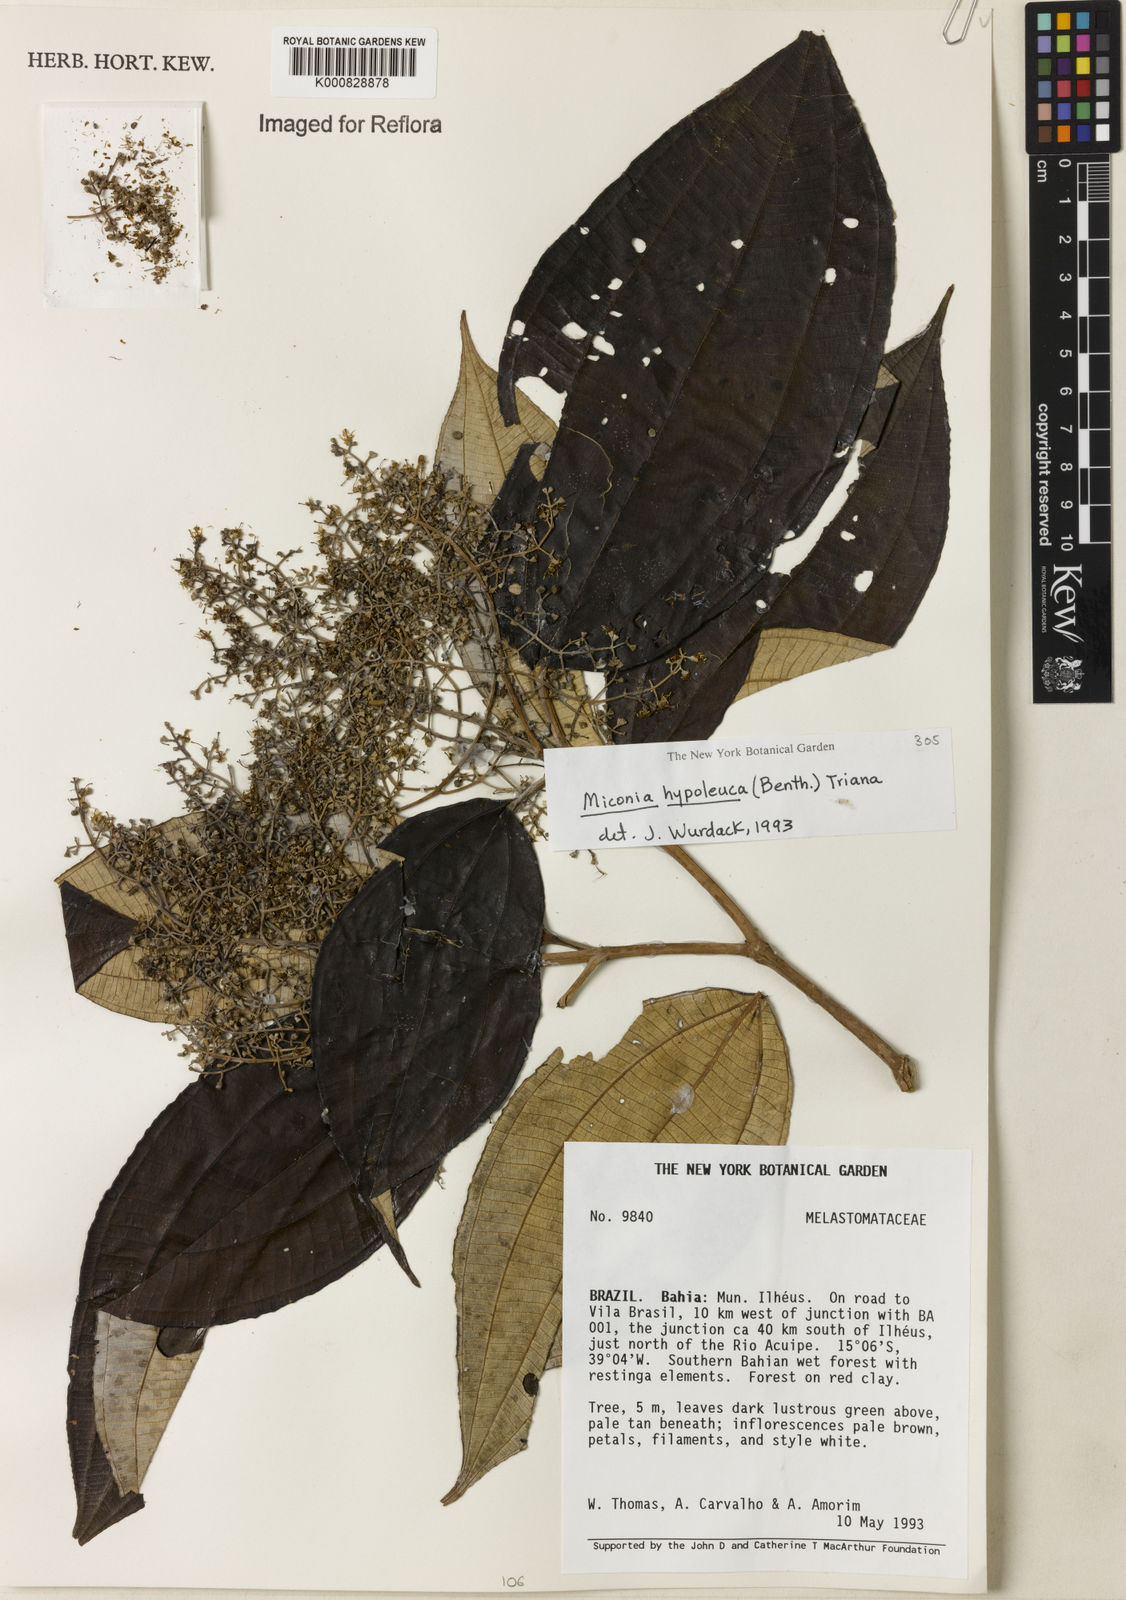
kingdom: Plantae
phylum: Tracheophyta
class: Magnoliopsida
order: Myrtales
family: Melastomataceae
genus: Miconia
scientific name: Miconia hypoleuca
